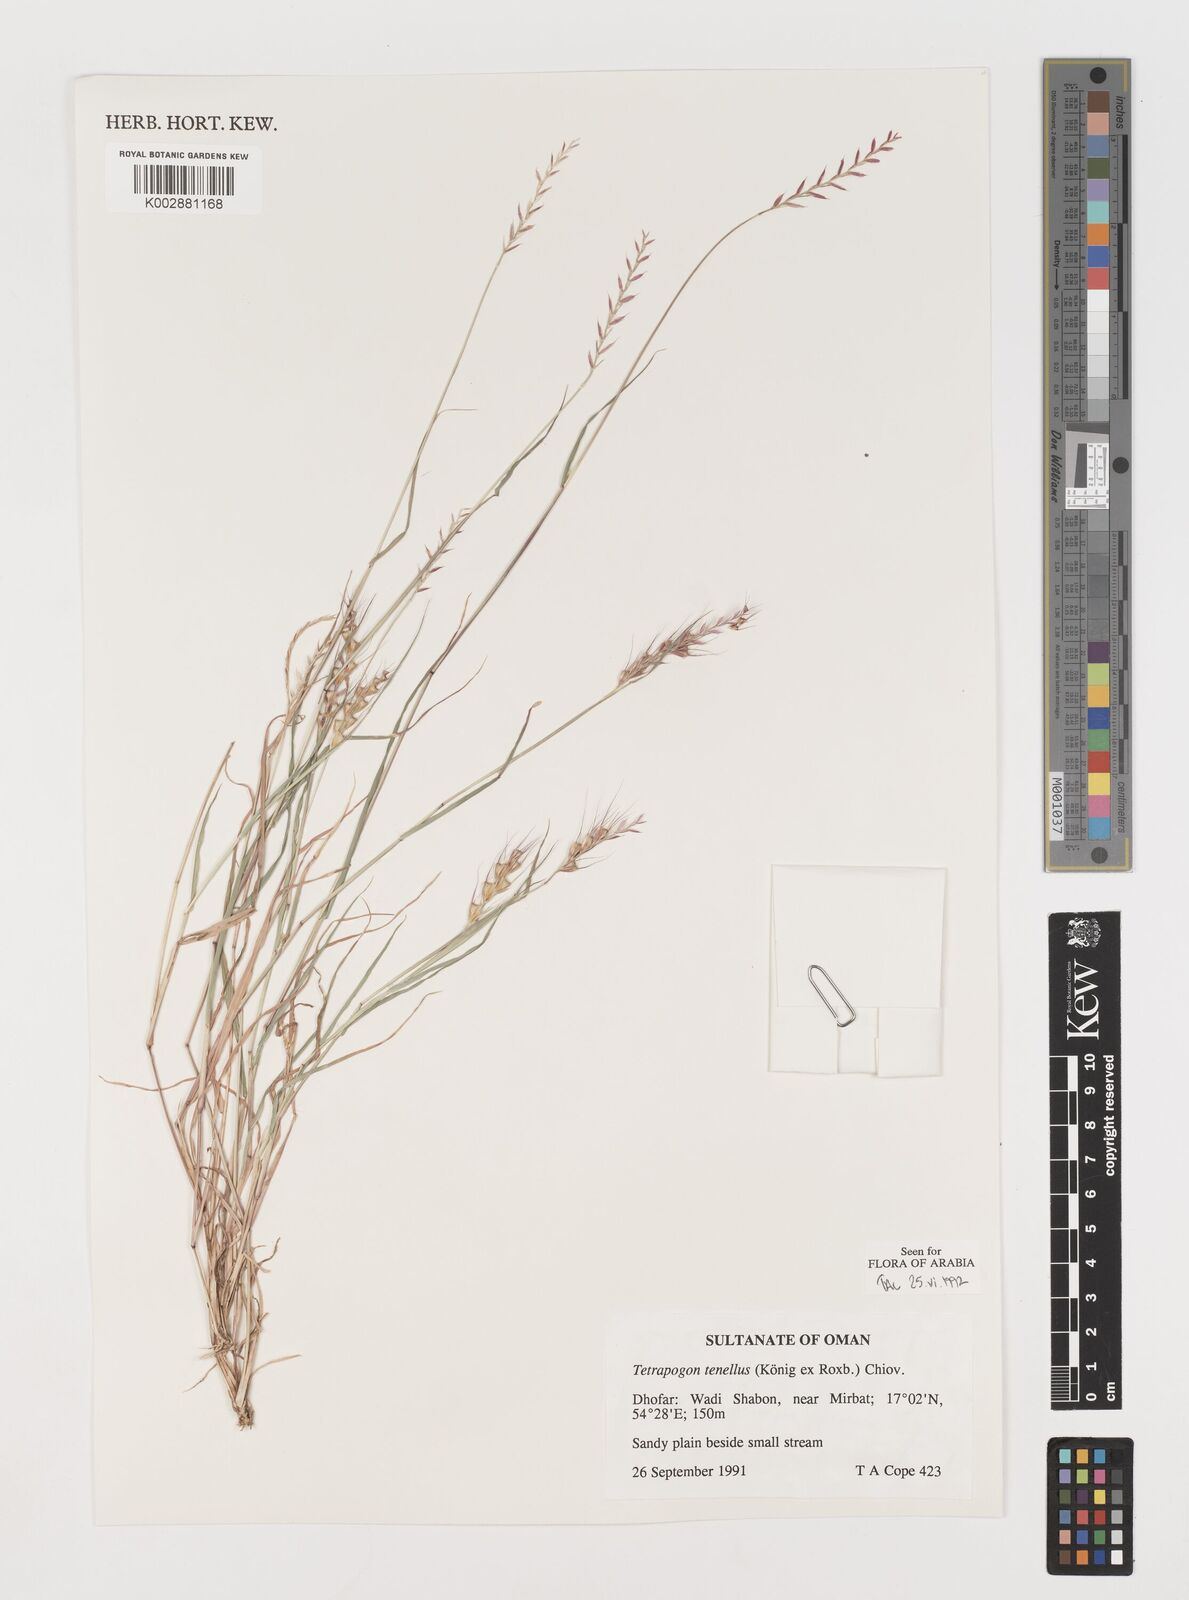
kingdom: Plantae
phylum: Tracheophyta
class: Liliopsida
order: Poales
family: Poaceae
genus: Tetrapogon
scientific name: Tetrapogon tenellus
